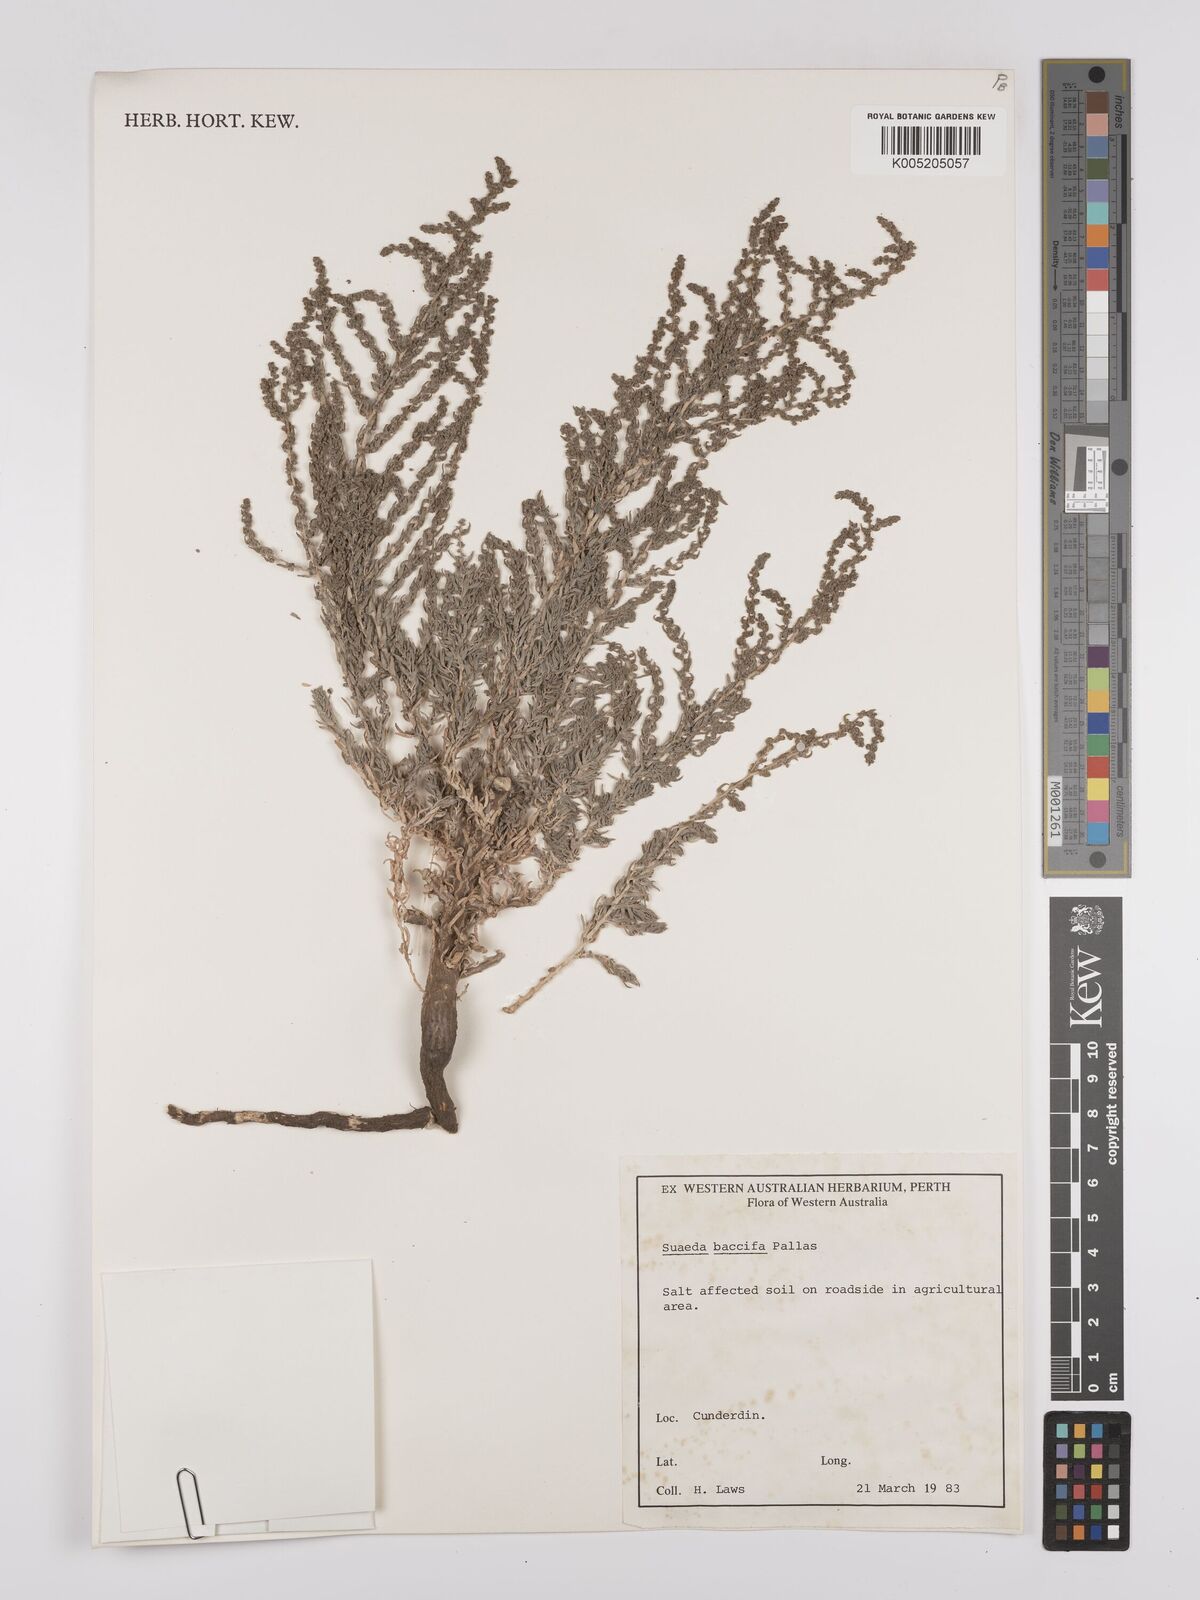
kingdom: Plantae
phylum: Tracheophyta
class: Magnoliopsida
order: Caryophyllales
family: Amaranthaceae
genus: Suaeda
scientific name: Suaeda acuminata
